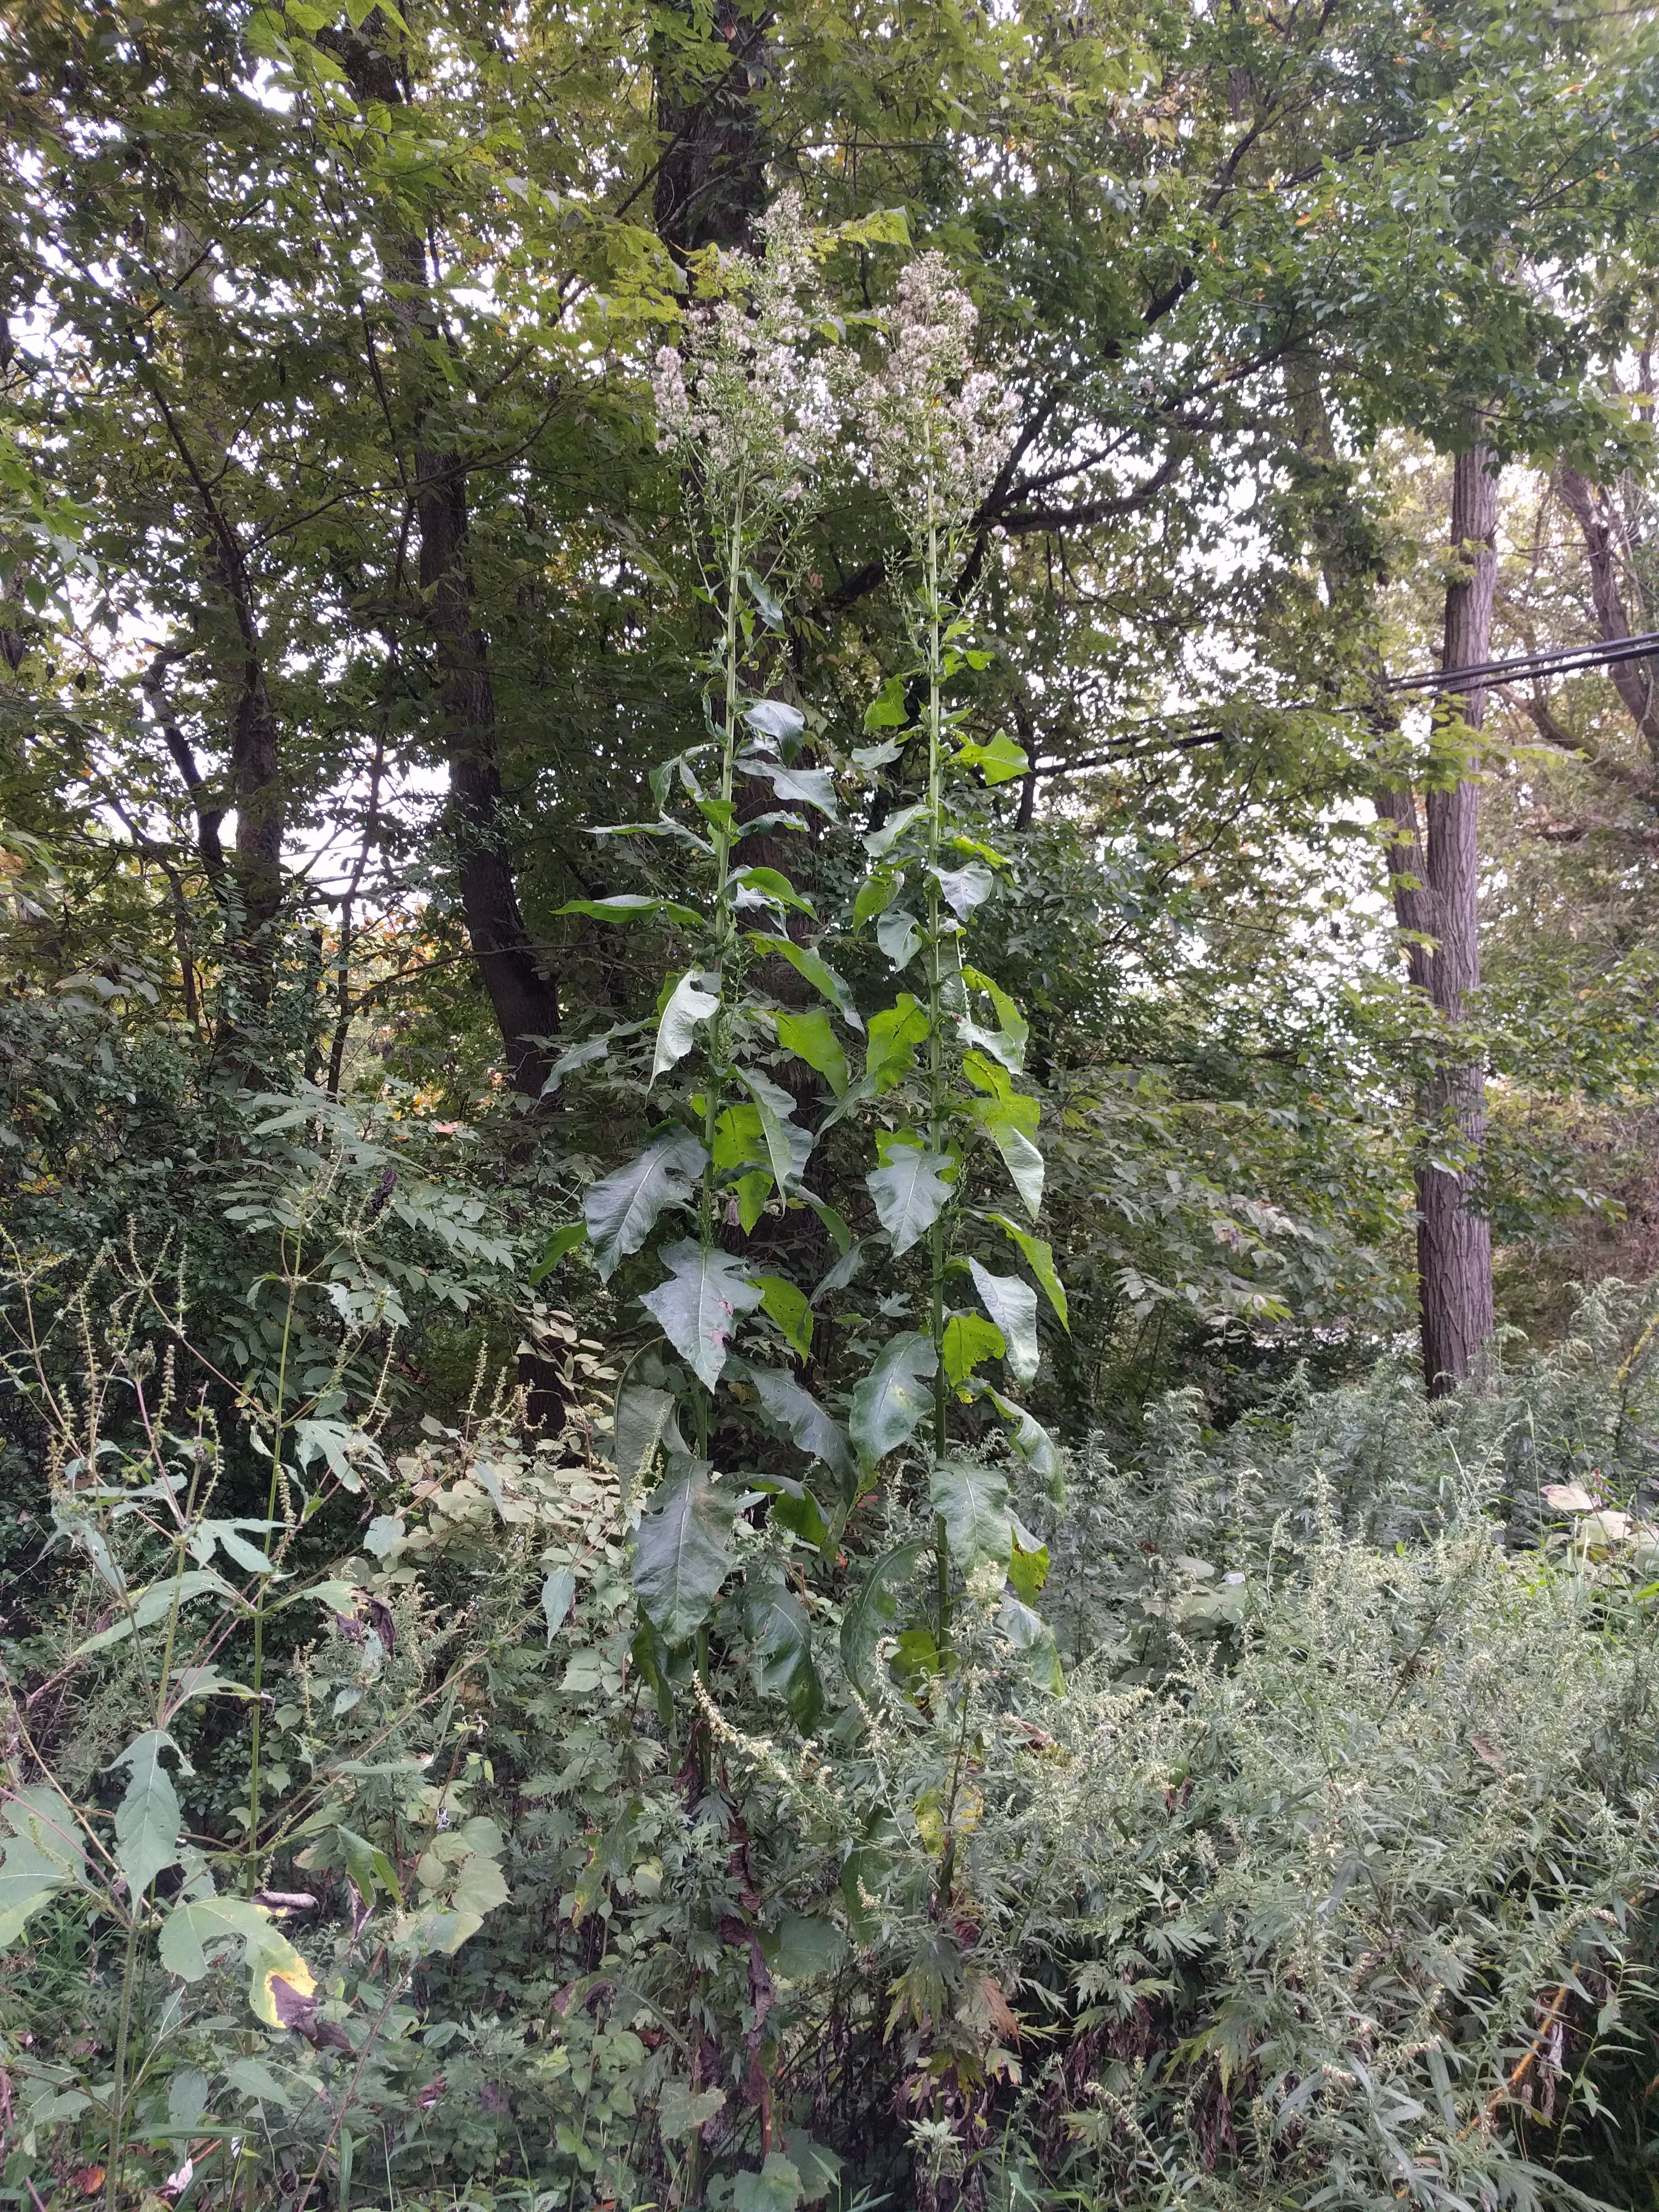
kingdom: Plantae
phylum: Tracheophyta
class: Magnoliopsida
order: Asterales
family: Asteraceae
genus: Lactuca
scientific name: Lactuca biennis
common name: Blue wood lettuce
